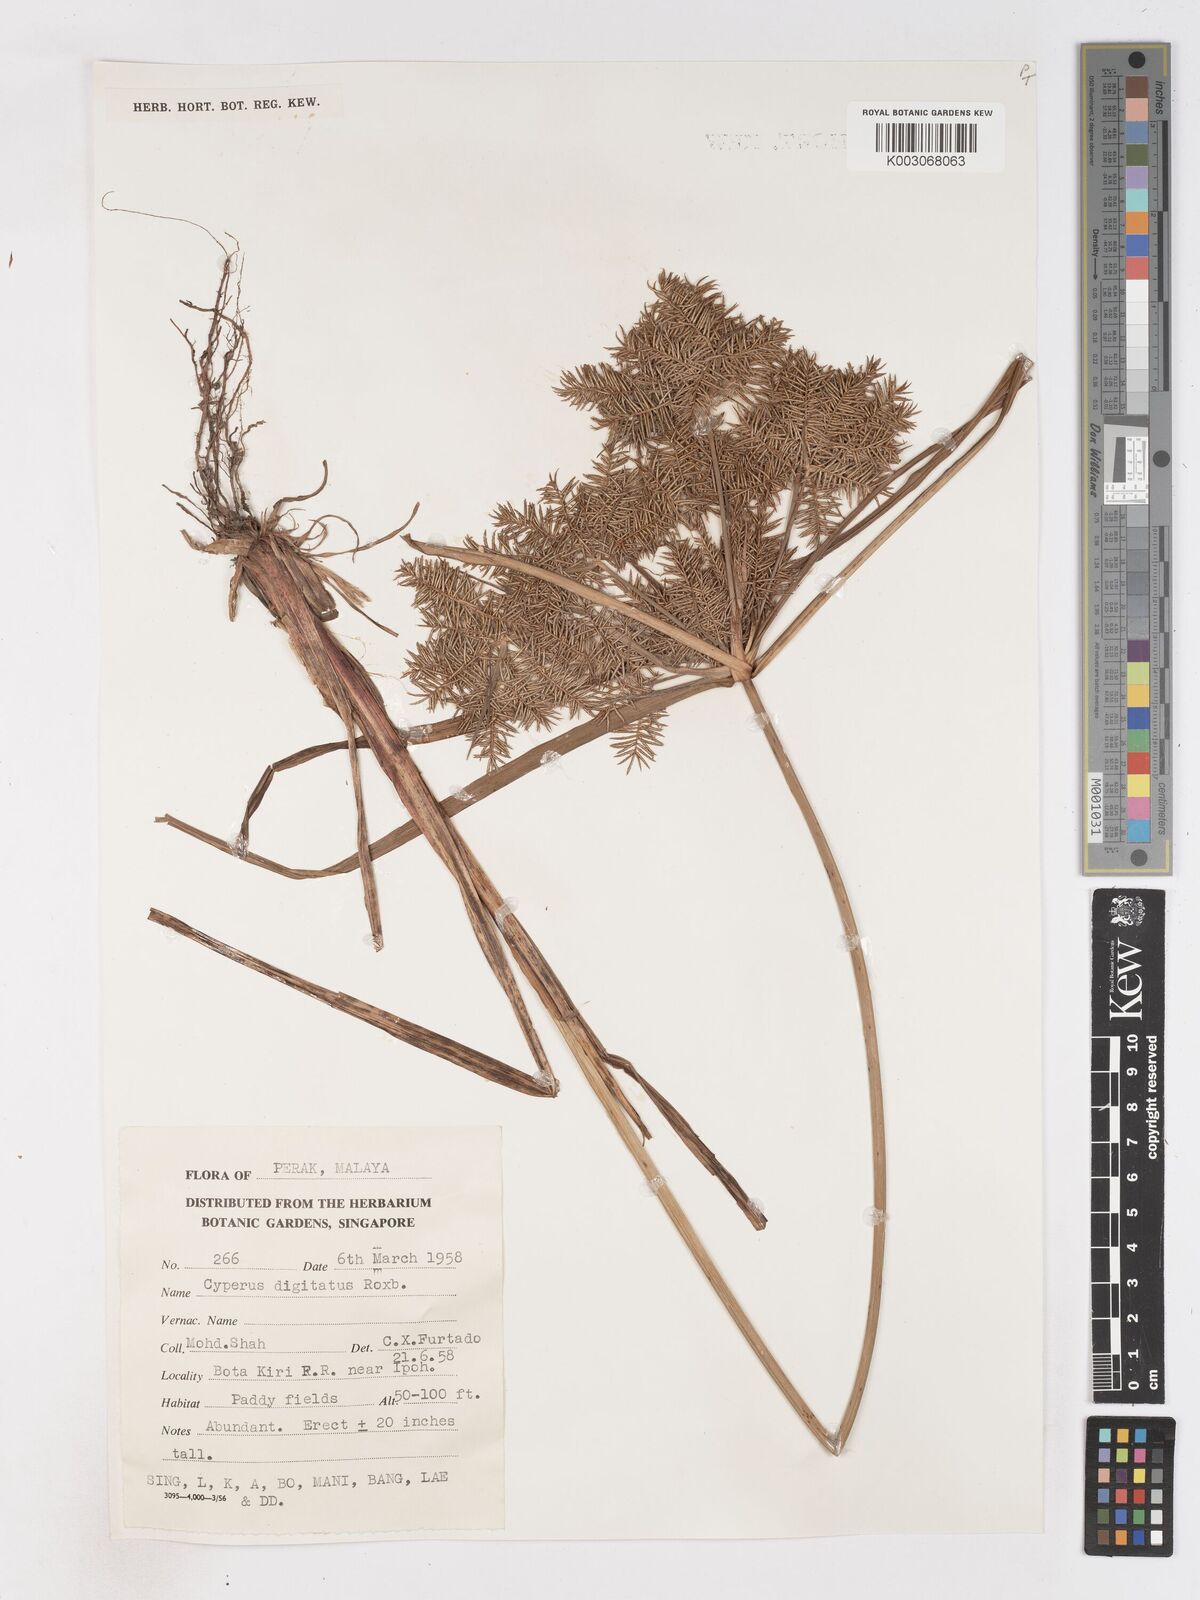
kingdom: Plantae
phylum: Tracheophyta
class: Liliopsida
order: Poales
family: Cyperaceae
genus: Cyperus
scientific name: Cyperus digitatus
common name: Finger flatsedge
